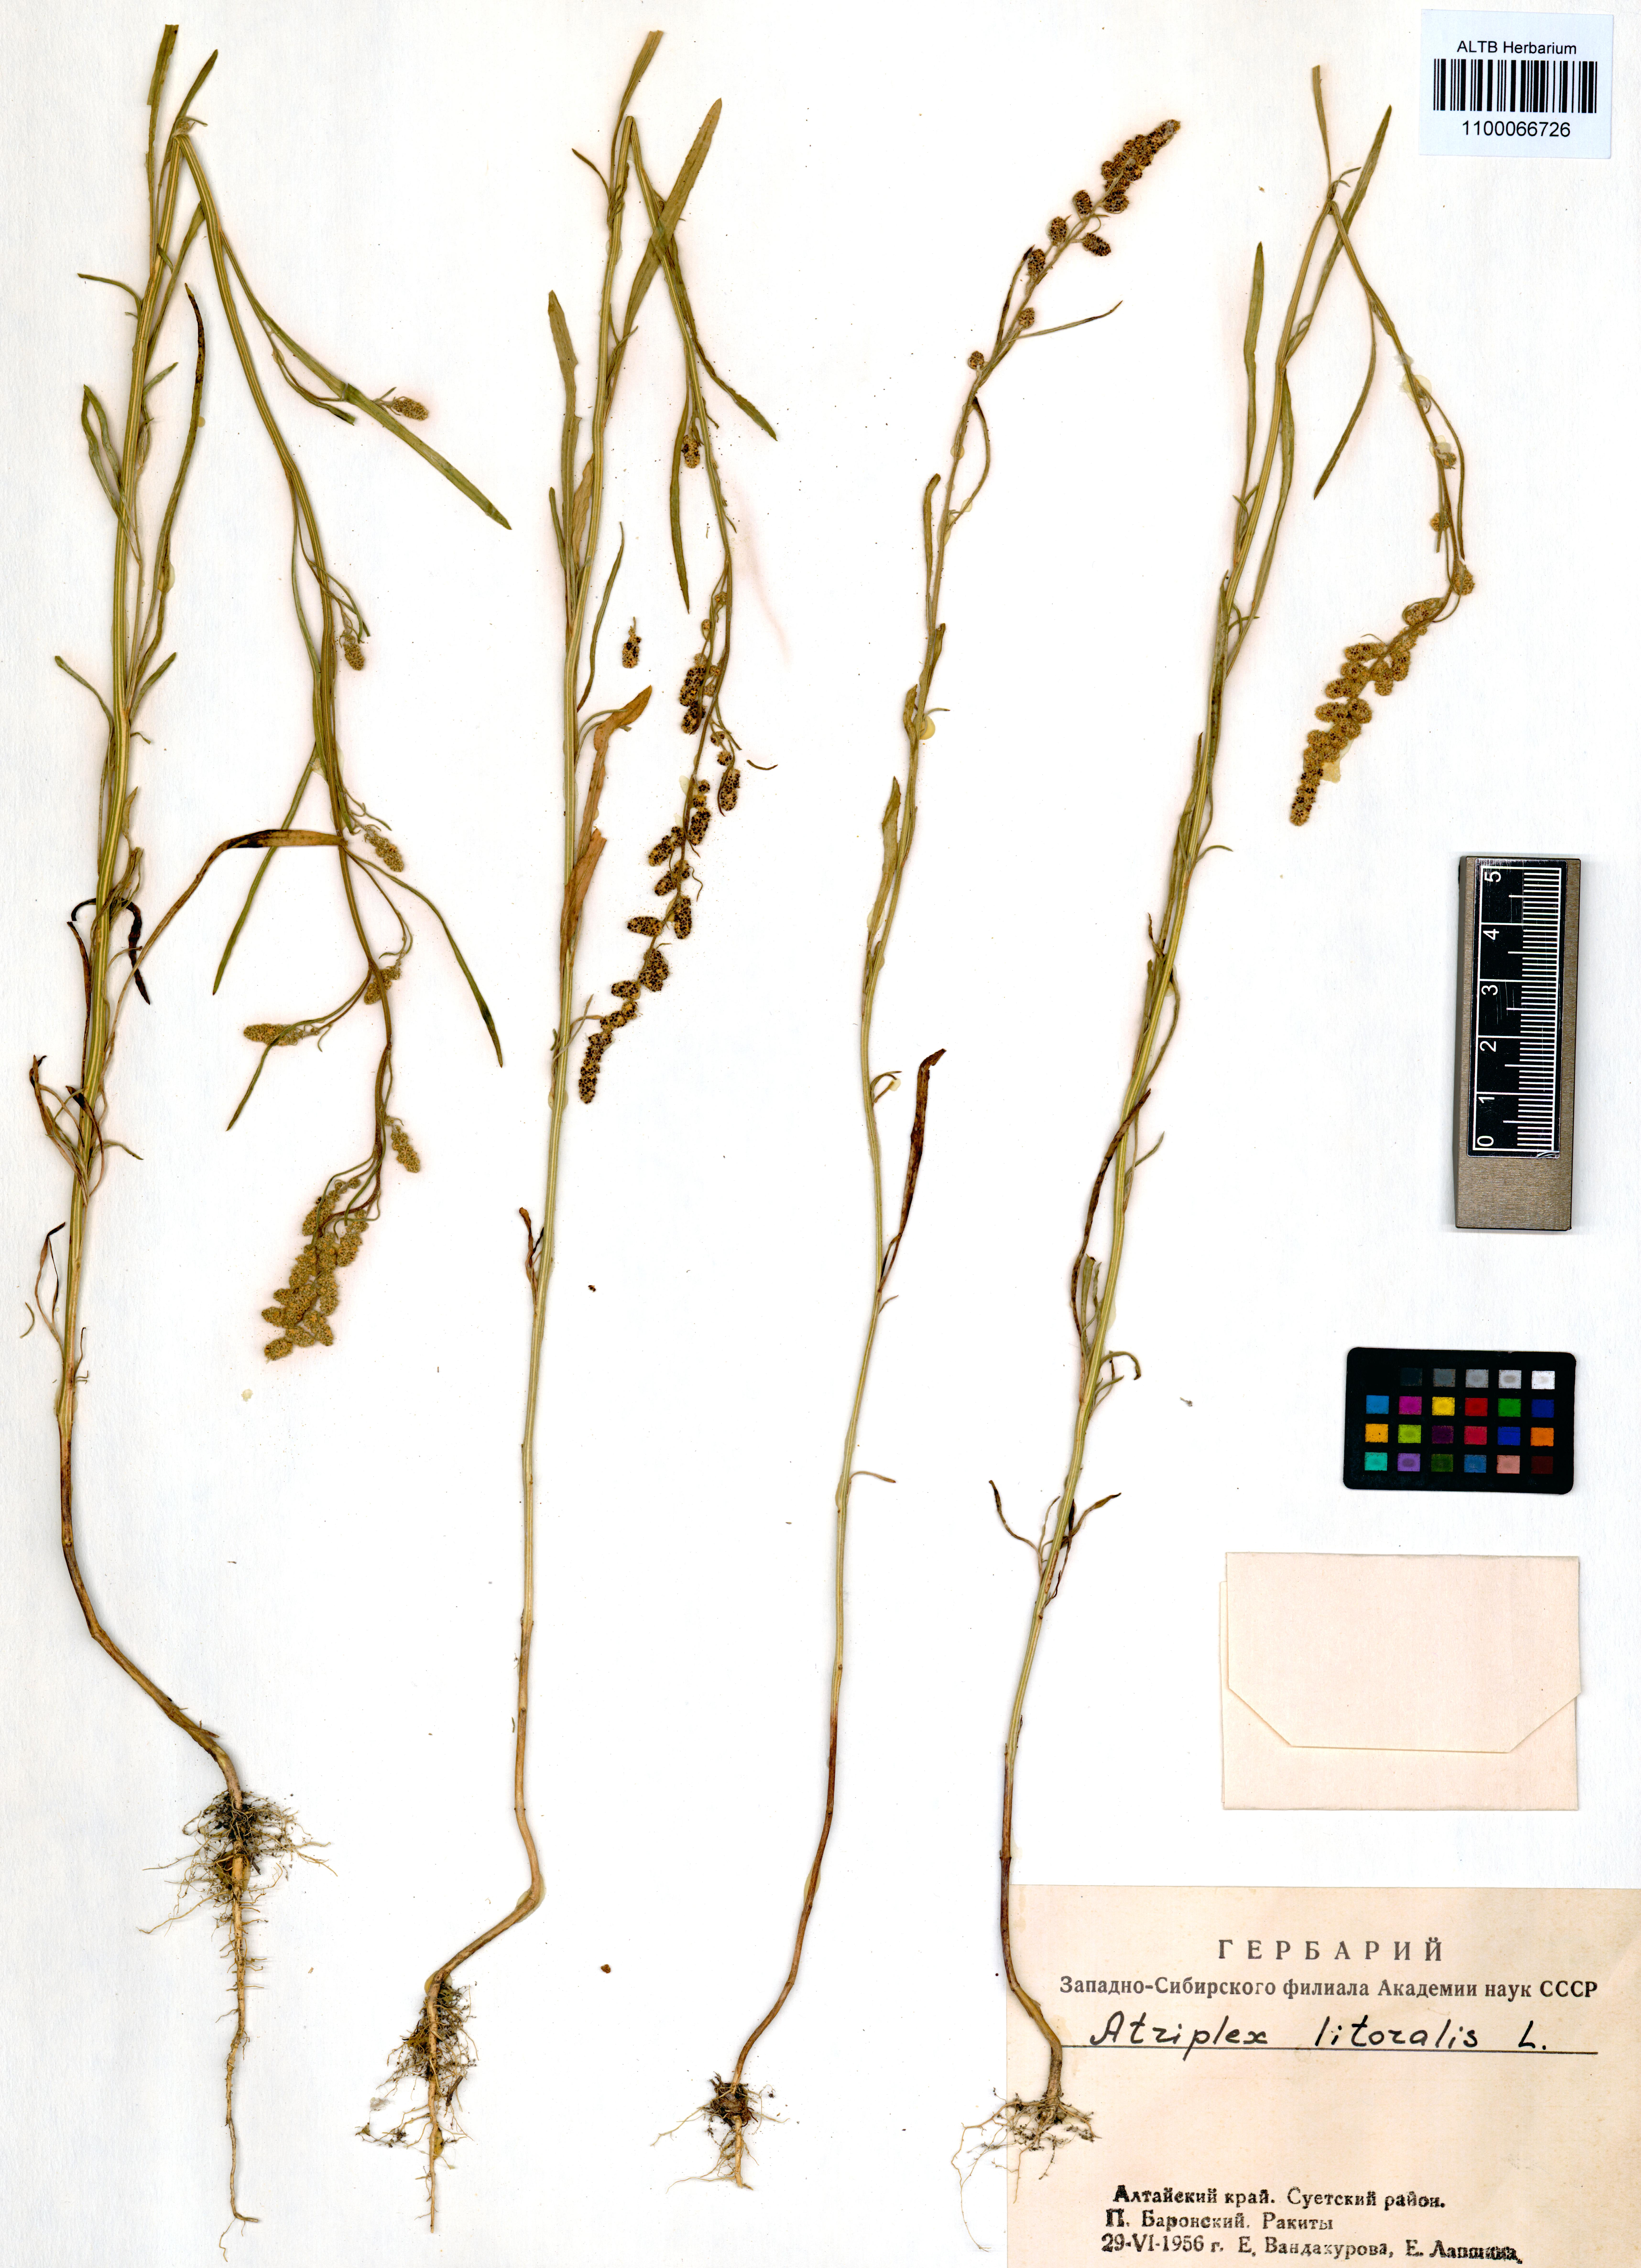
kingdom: Plantae
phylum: Tracheophyta
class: Magnoliopsida
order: Caryophyllales
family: Amaranthaceae
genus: Atriplex
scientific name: Atriplex littoralis
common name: Grass-leaved orache
